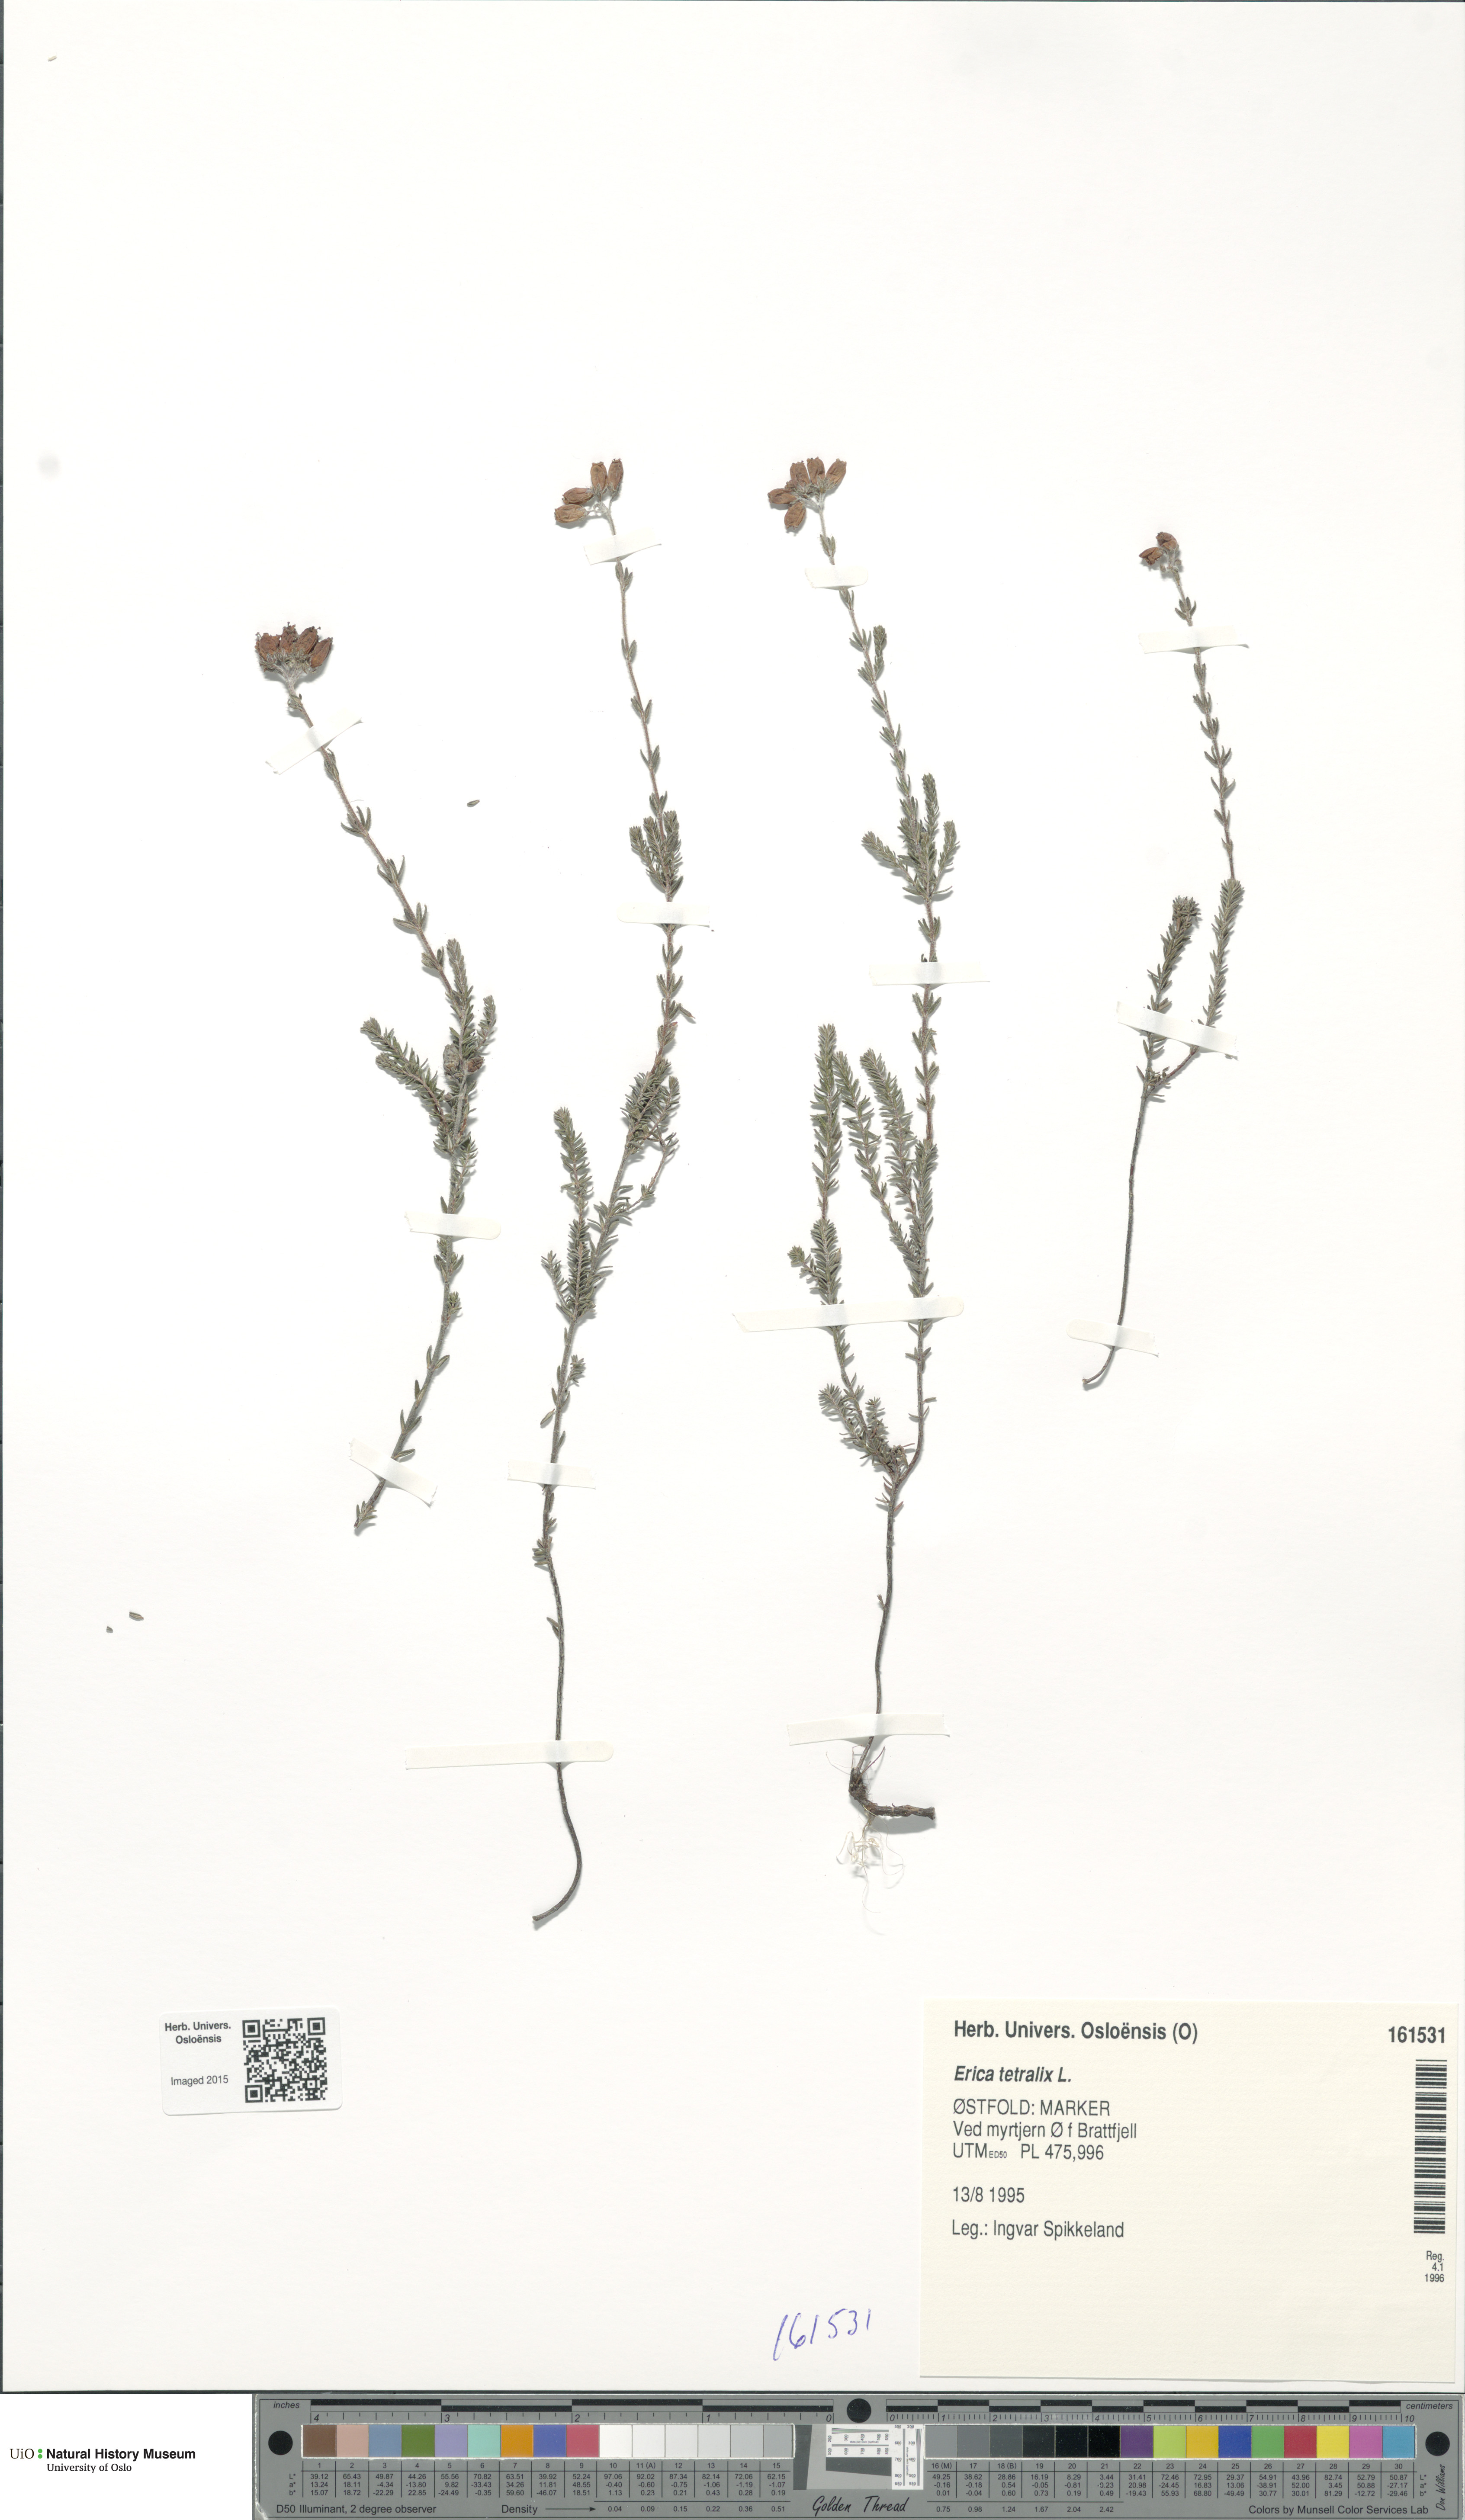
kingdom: Plantae
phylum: Tracheophyta
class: Magnoliopsida
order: Ericales
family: Ericaceae
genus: Erica
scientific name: Erica tetralix
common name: Cross-leaved heath
